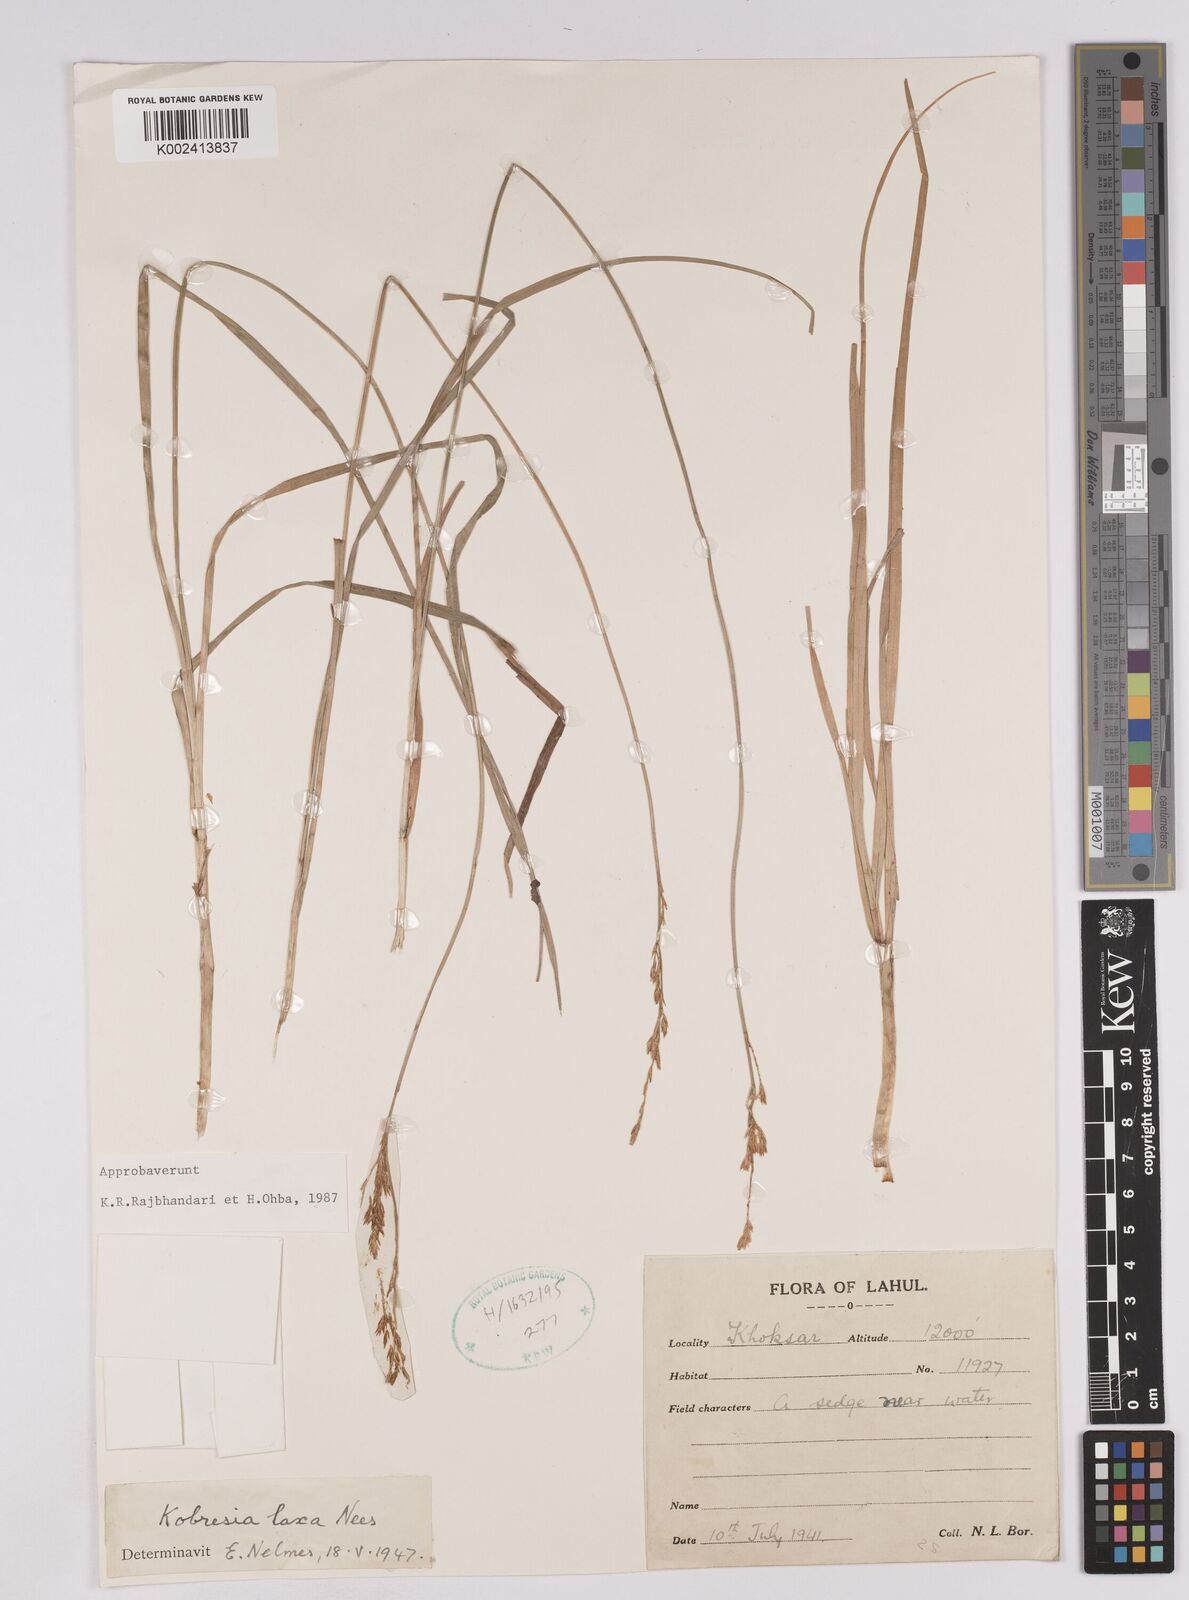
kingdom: Plantae
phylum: Tracheophyta
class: Liliopsida
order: Poales
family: Cyperaceae
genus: Carex
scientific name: Carex pseudolaxa
